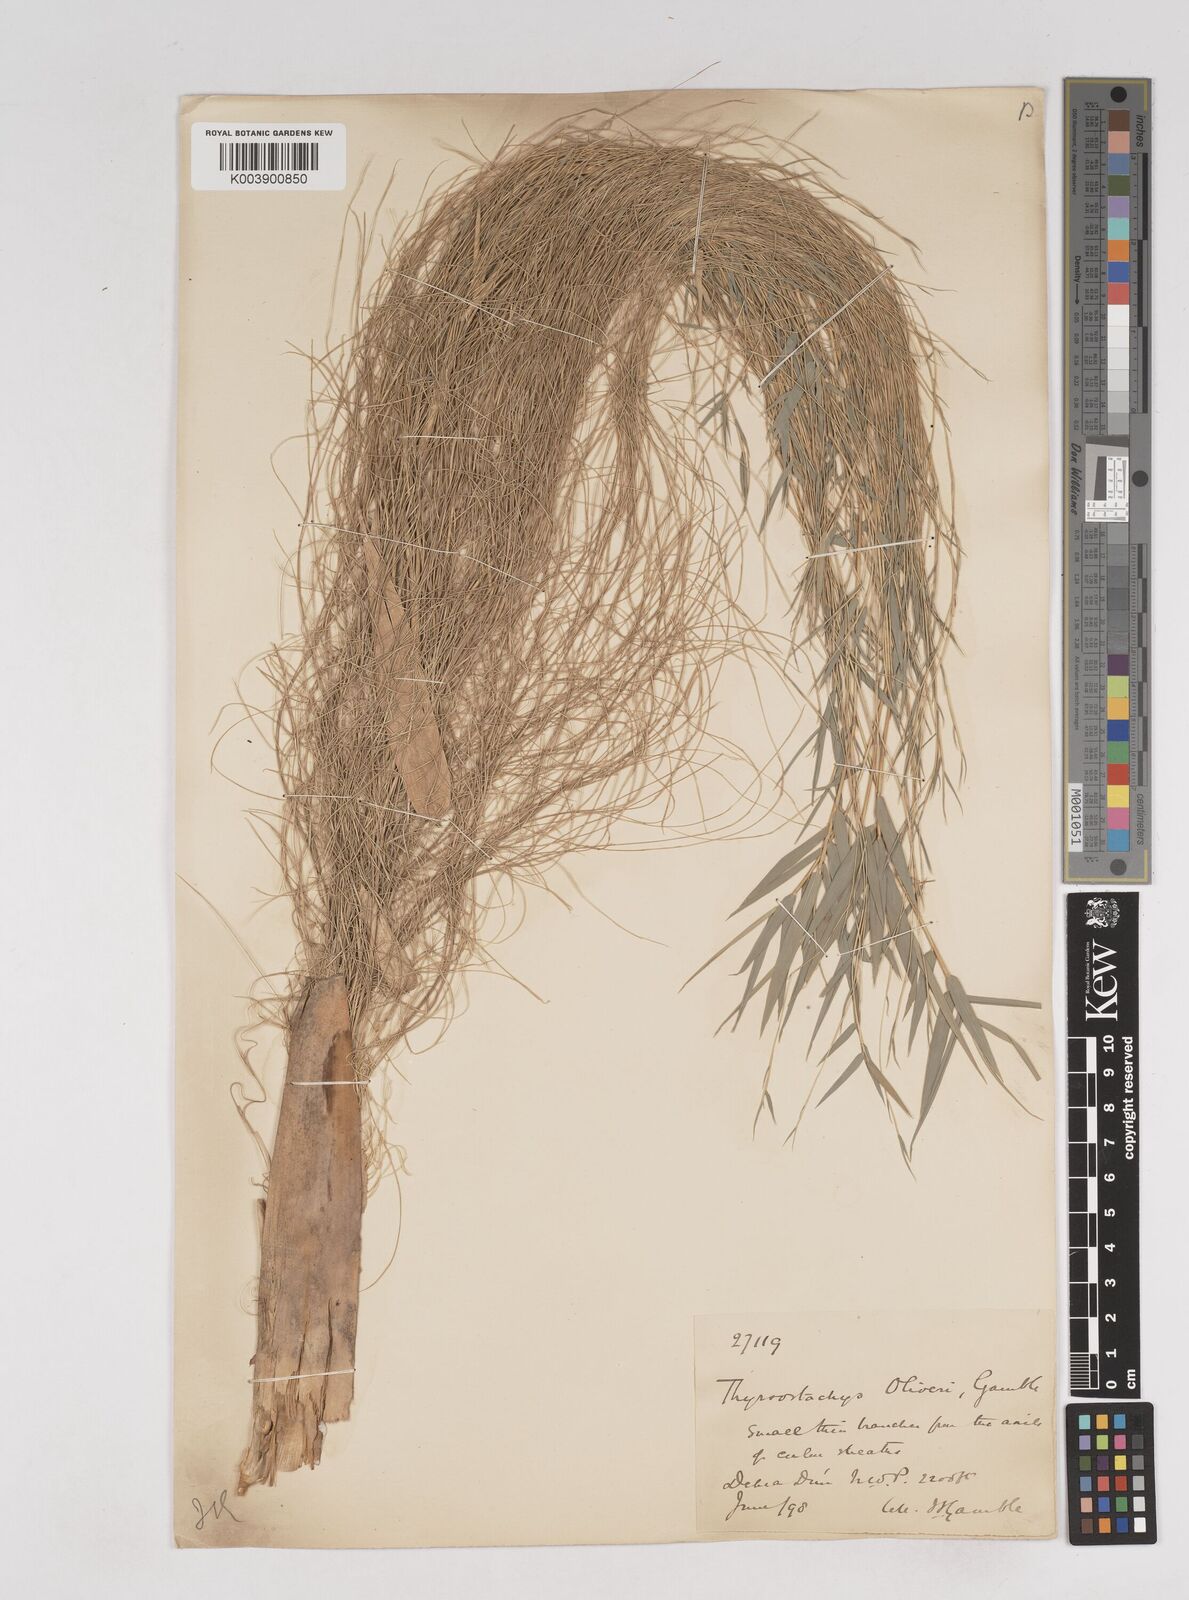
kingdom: Plantae
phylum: Tracheophyta
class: Liliopsida
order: Poales
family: Poaceae
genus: Thyrsostachys
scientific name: Thyrsostachys oliveri
